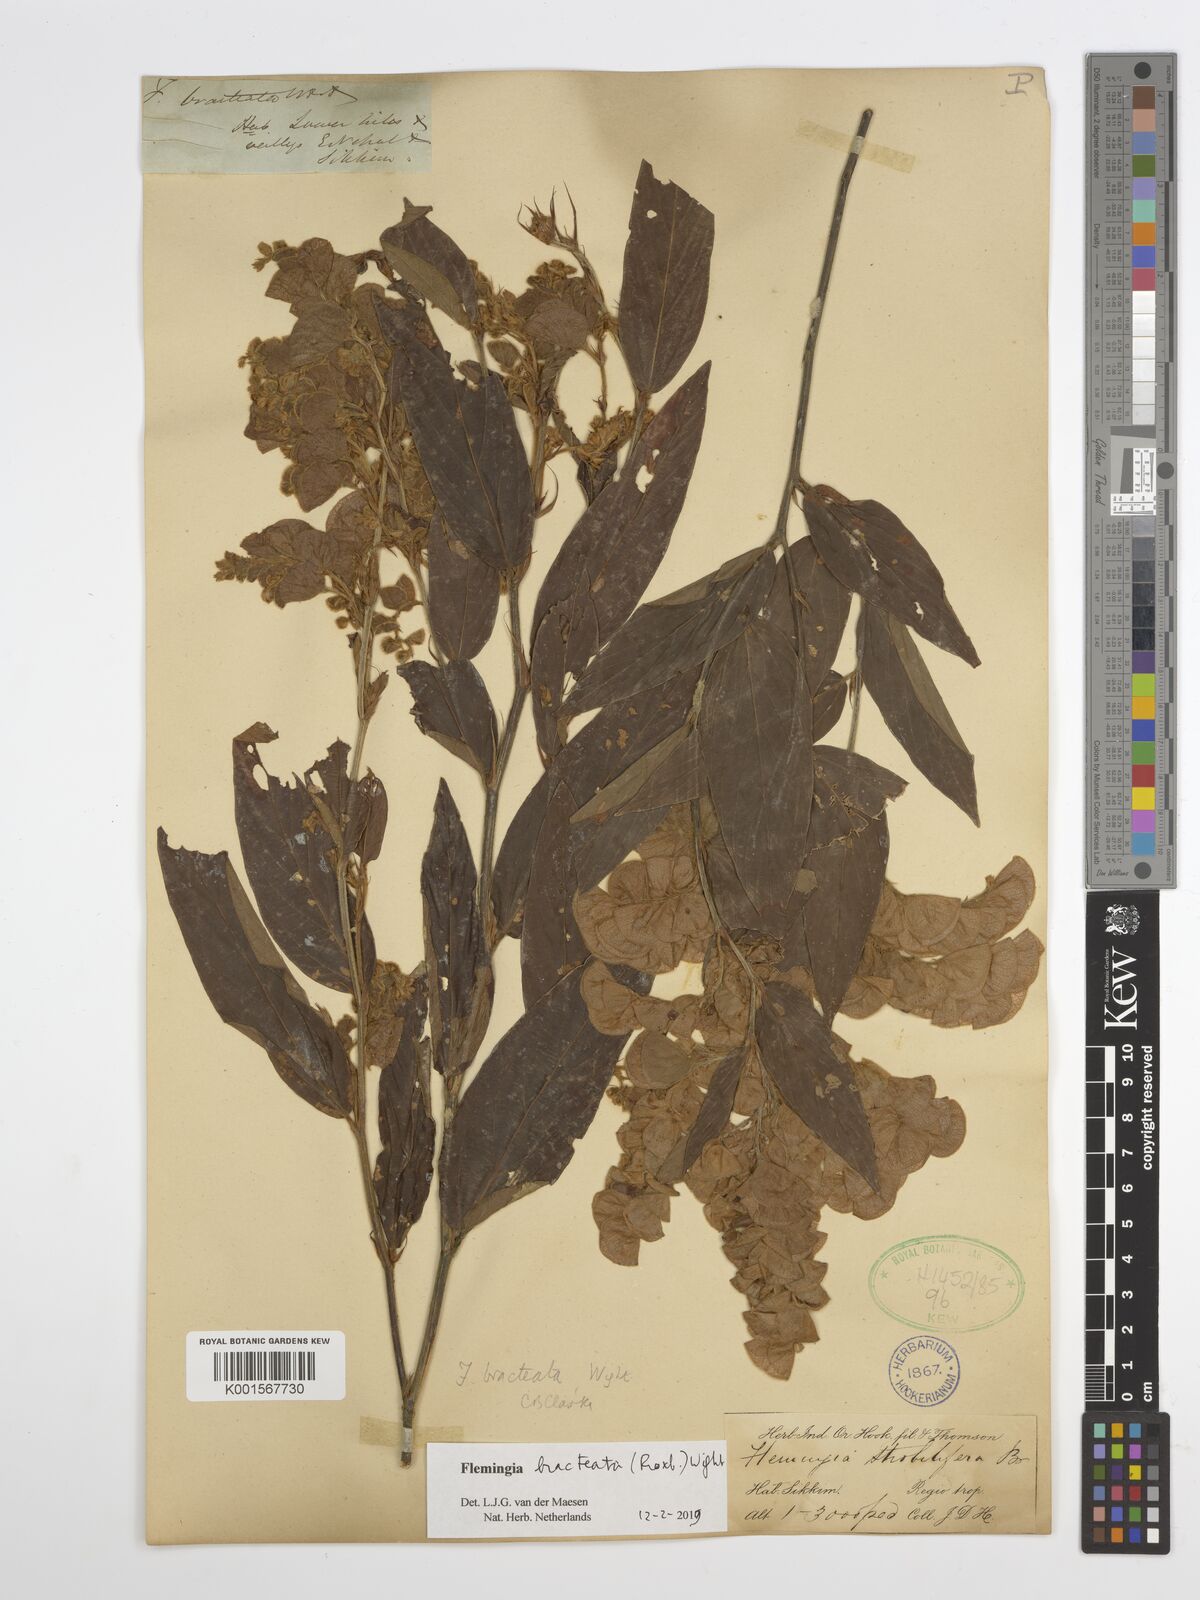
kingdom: Plantae
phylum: Tracheophyta
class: Magnoliopsida
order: Fabales
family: Fabaceae
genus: Flemingia
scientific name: Flemingia bracteata
